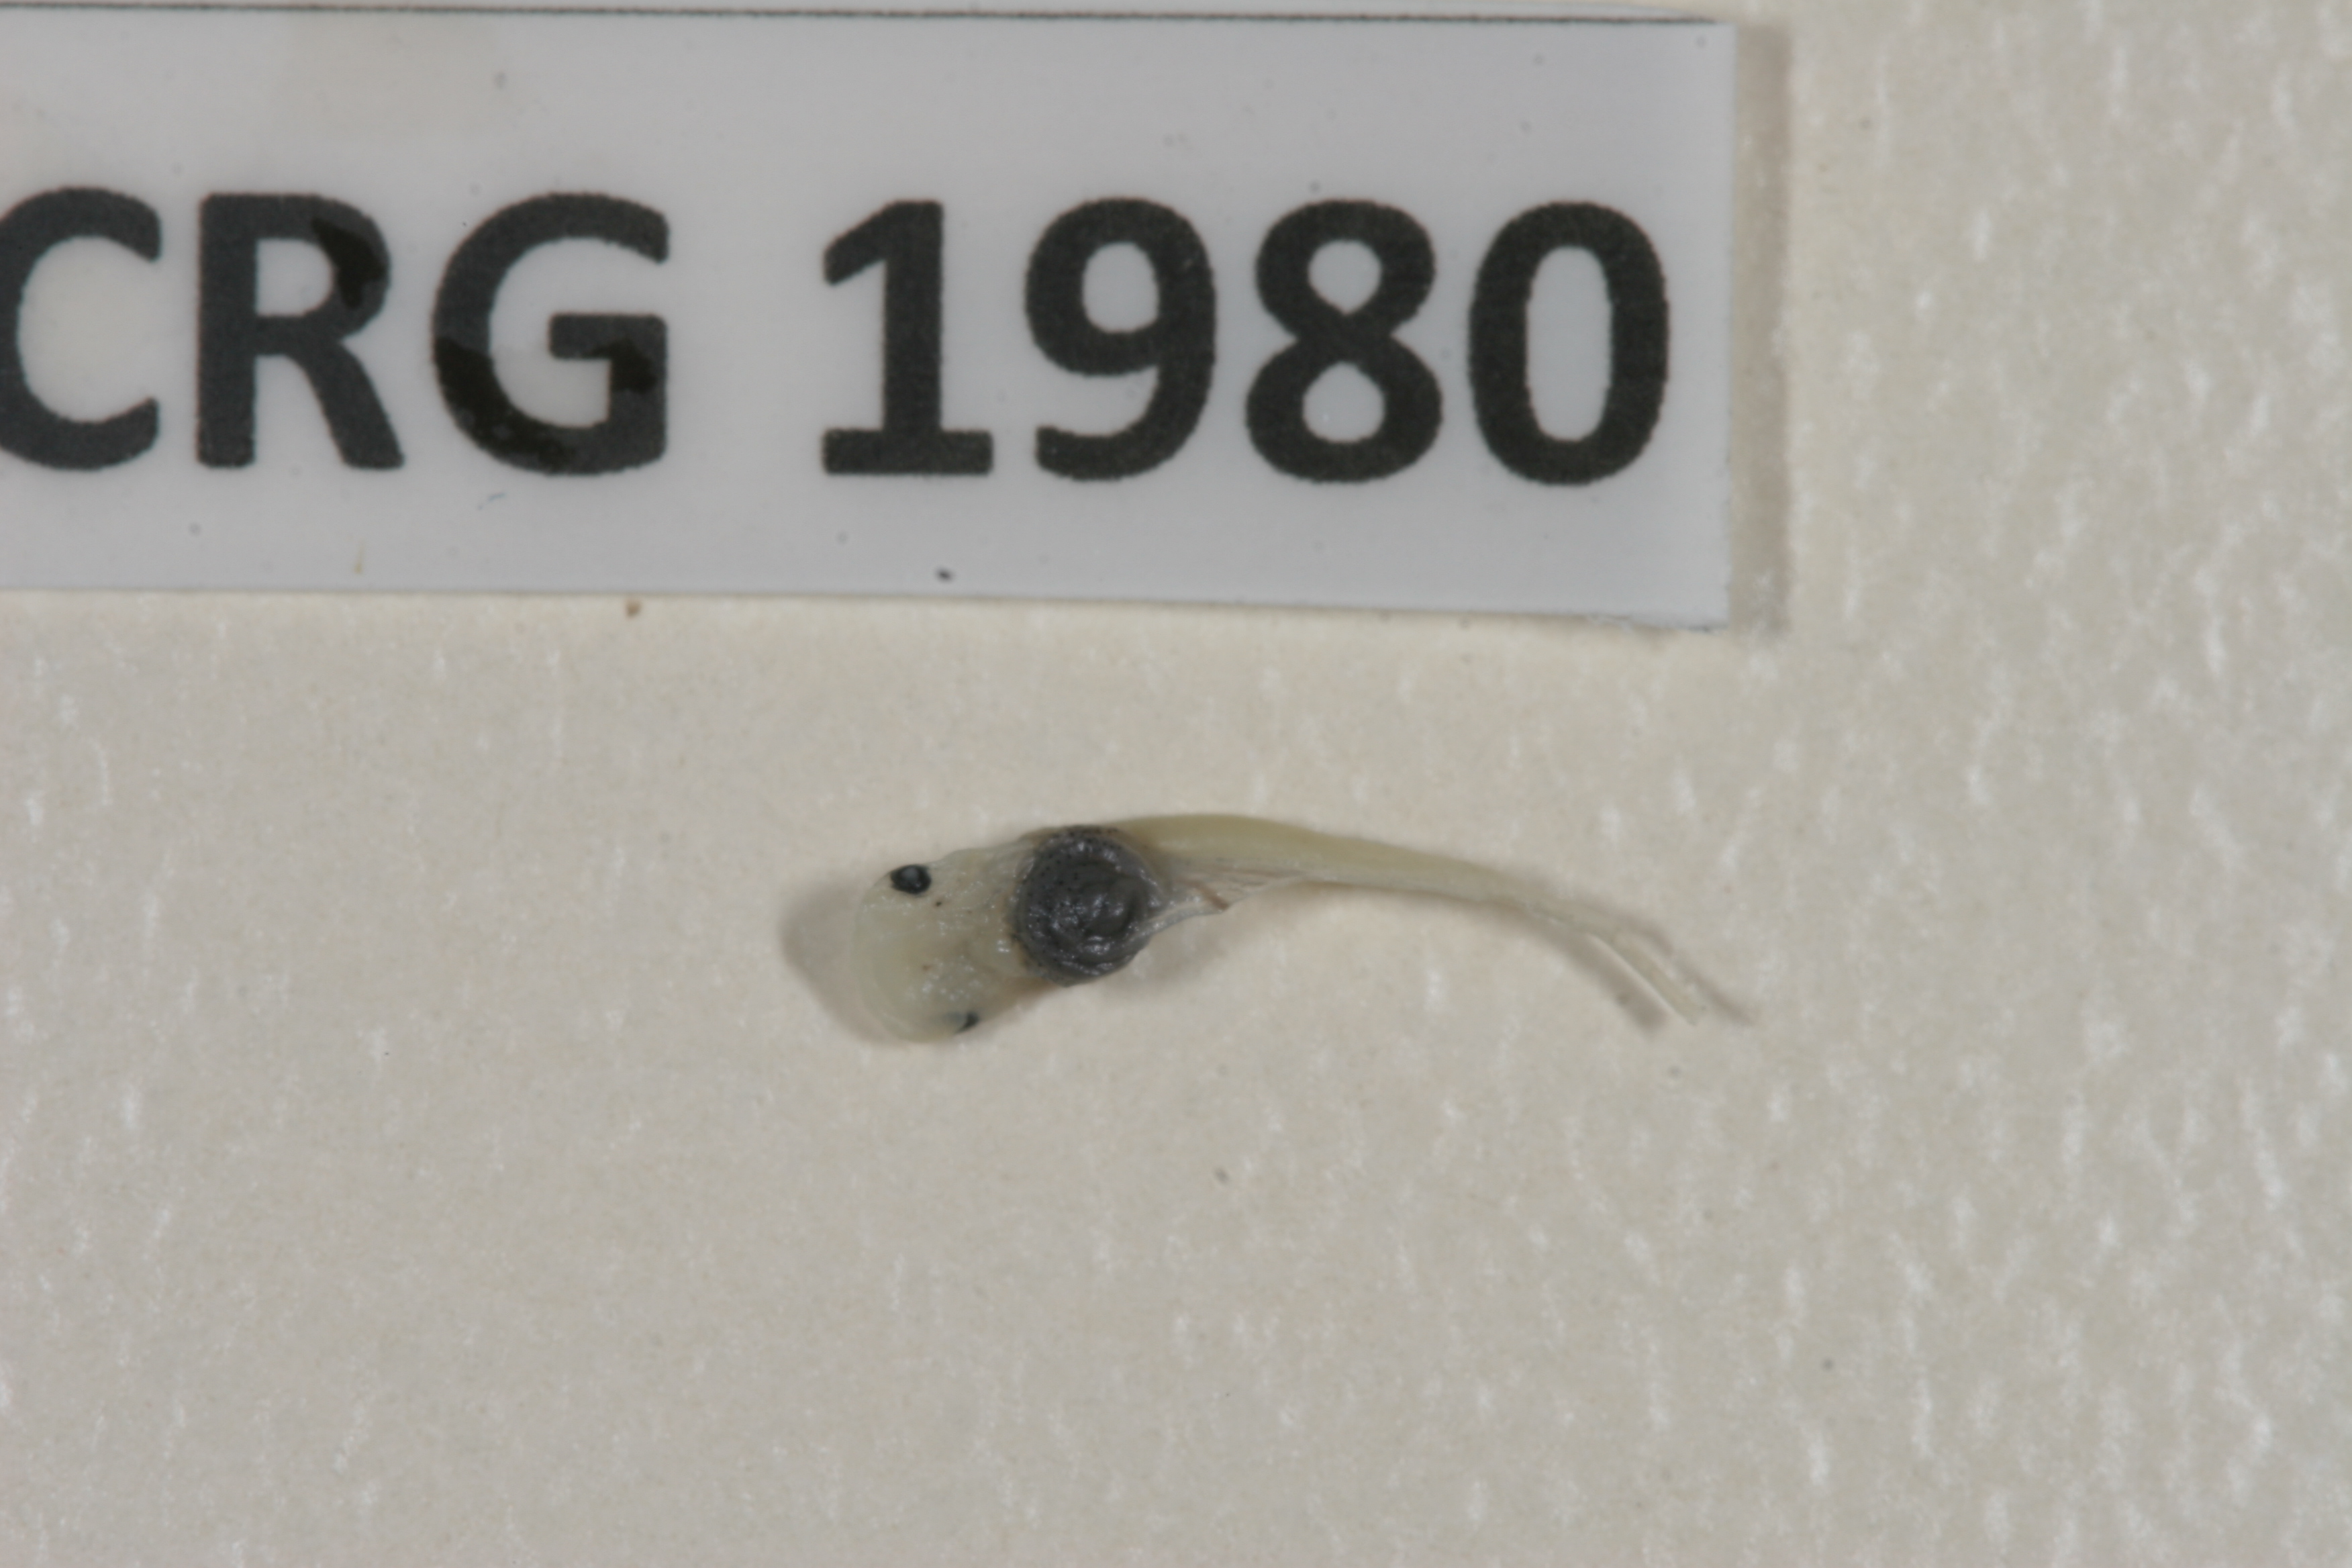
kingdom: Animalia
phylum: Chordata
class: Amphibia
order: Anura
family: Pipidae
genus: Xenopus
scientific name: Xenopus petersii
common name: Peters' clawed frog
